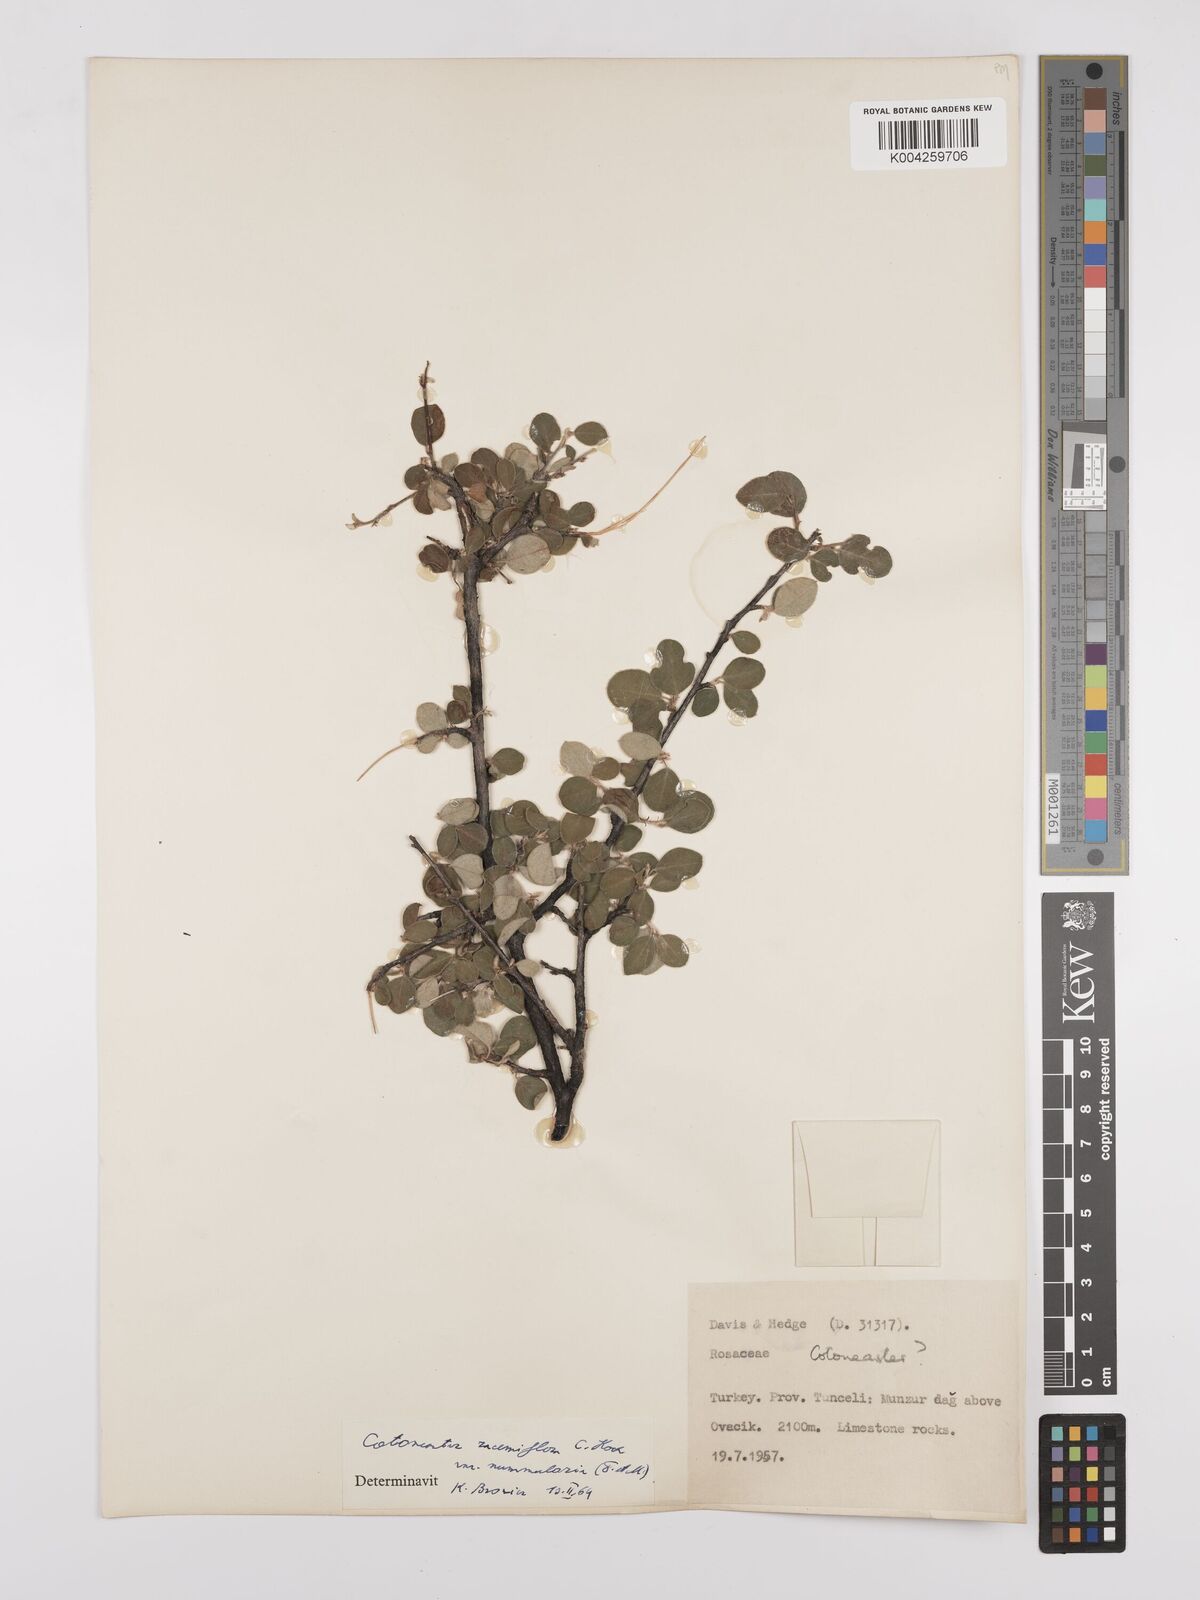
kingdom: Plantae
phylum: Tracheophyta
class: Magnoliopsida
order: Rosales
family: Rosaceae
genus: Cotoneaster
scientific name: Cotoneaster racemiflorus
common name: Cluster-flower cotoneaster
